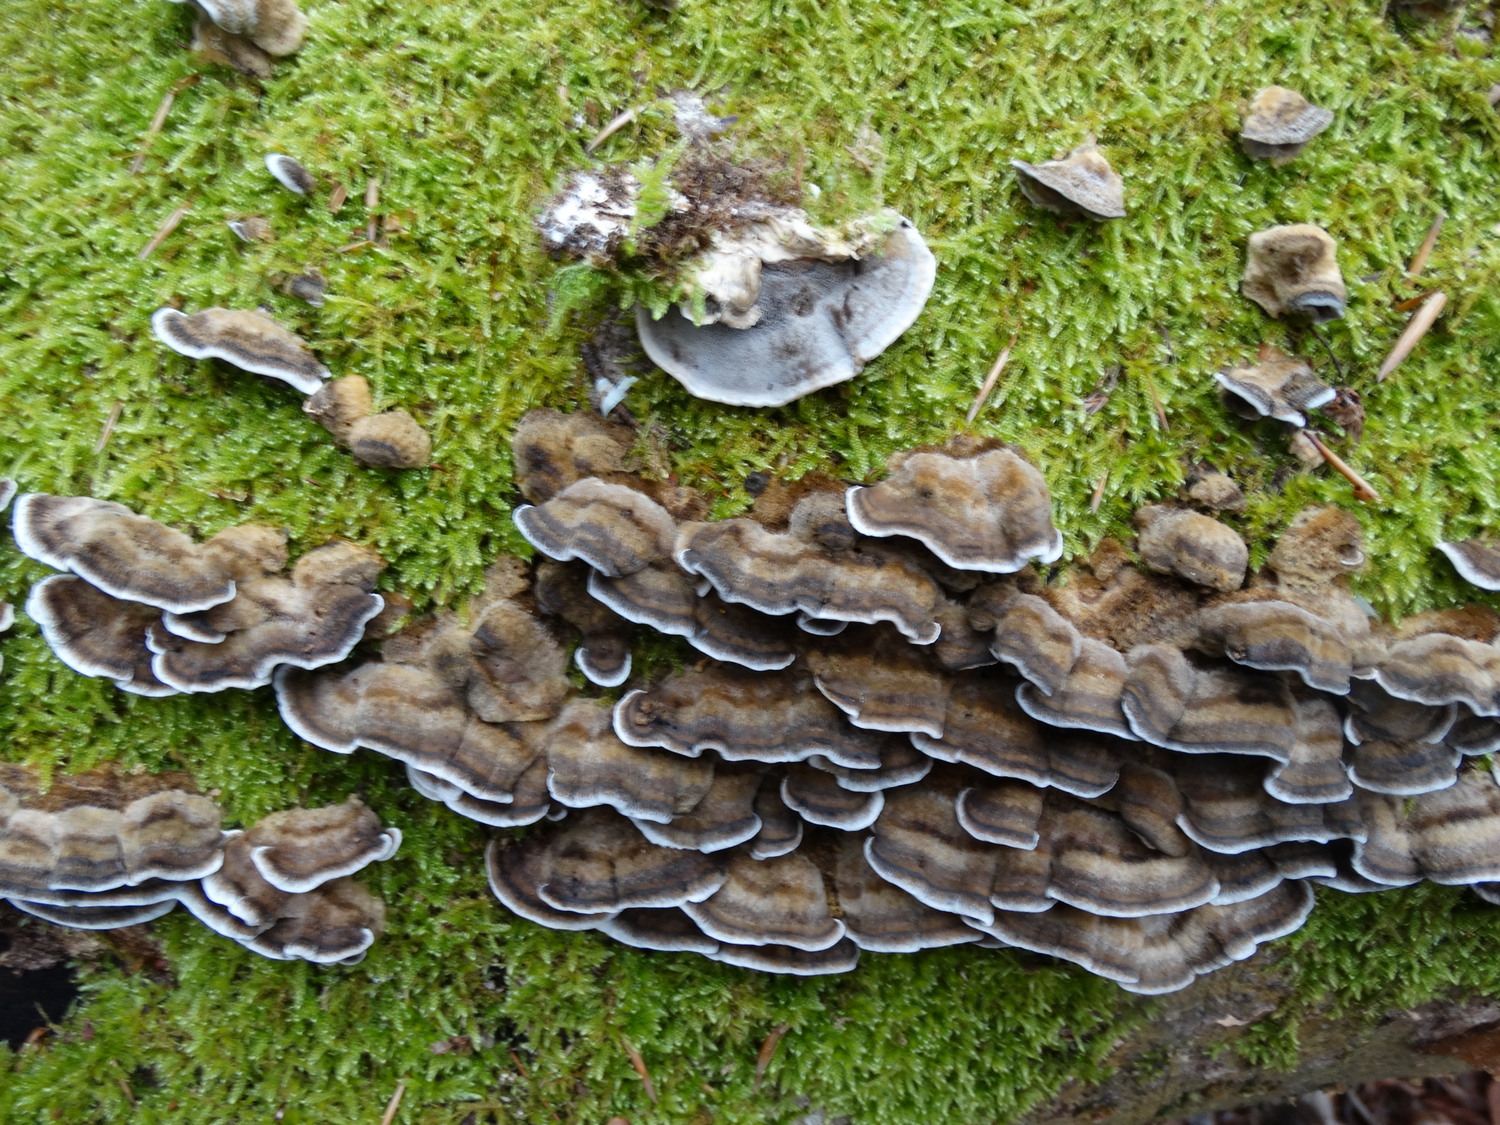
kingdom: Fungi
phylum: Basidiomycota
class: Agaricomycetes
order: Polyporales
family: Phanerochaetaceae
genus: Bjerkandera
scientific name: Bjerkandera adusta
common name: sveden sodporesvamp
